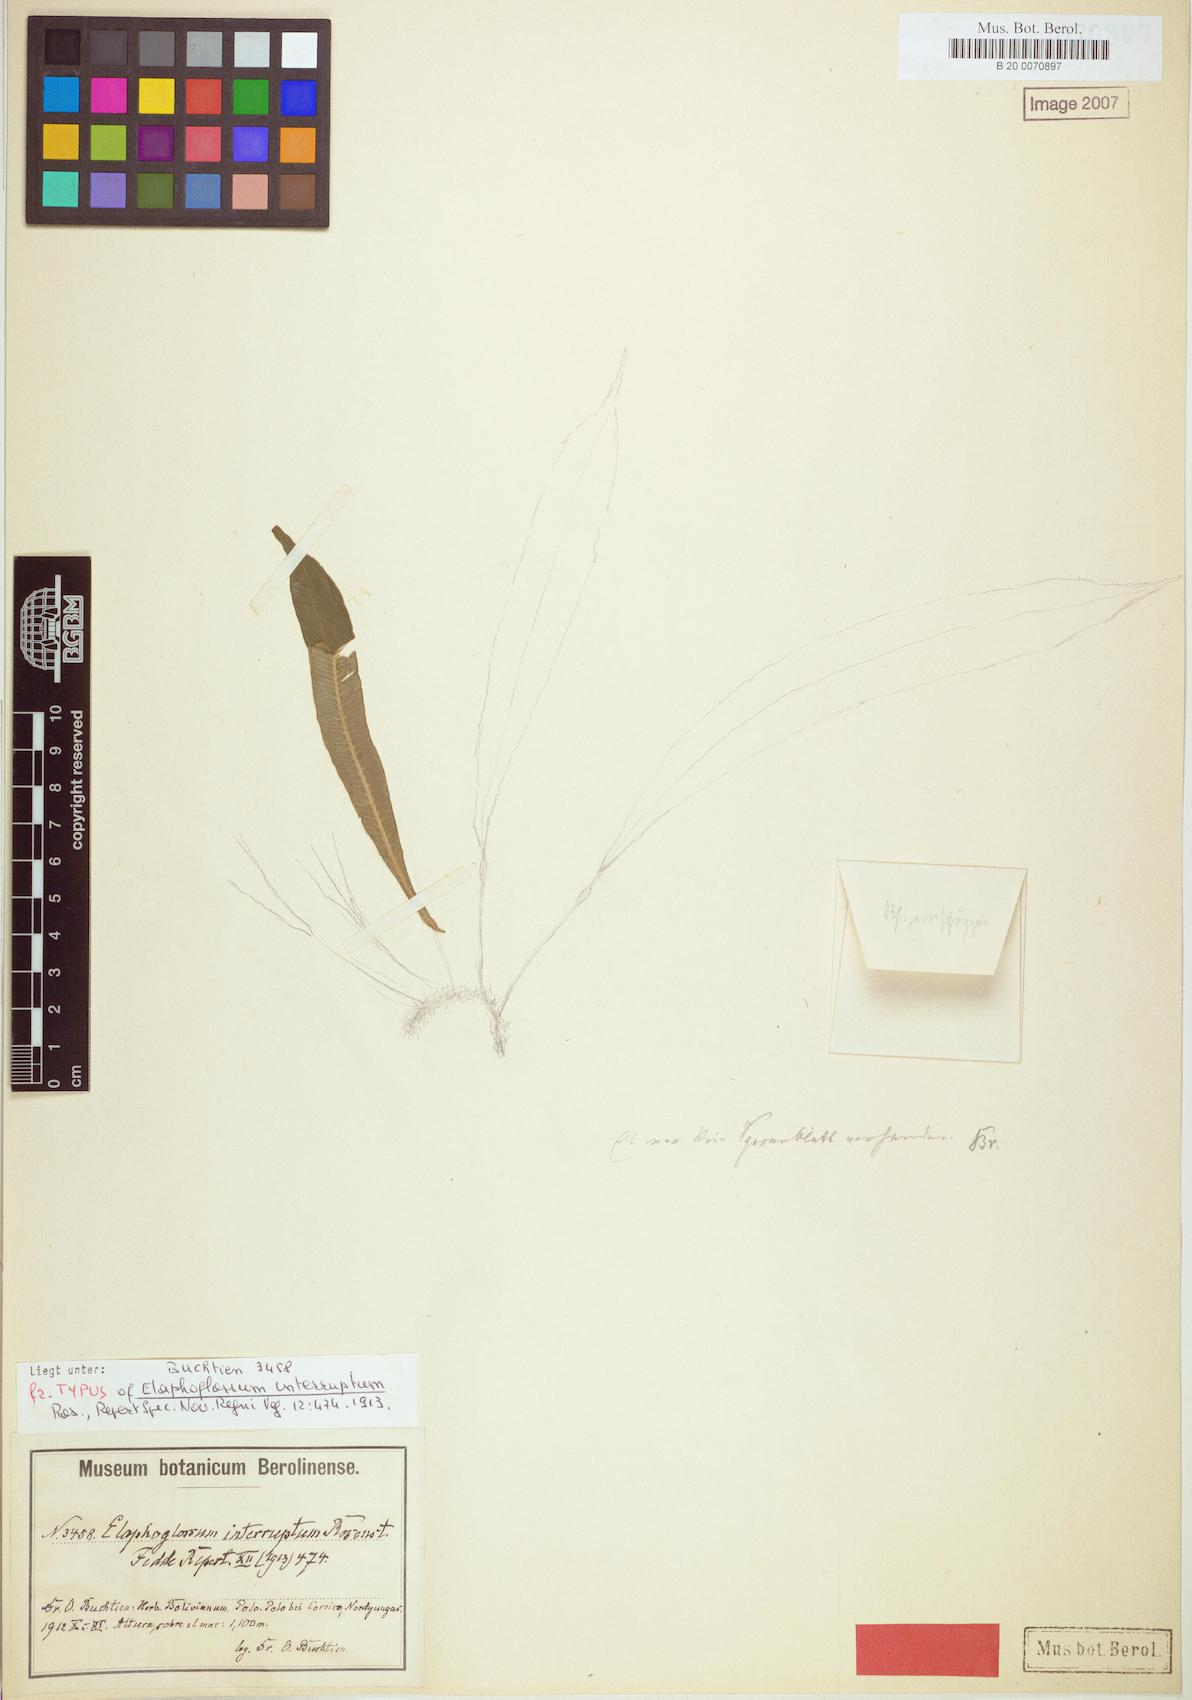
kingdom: Plantae
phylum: Tracheophyta
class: Polypodiopsida
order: Polypodiales
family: Dryopteridaceae
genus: Elaphoglossum
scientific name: Elaphoglossum interruptum
